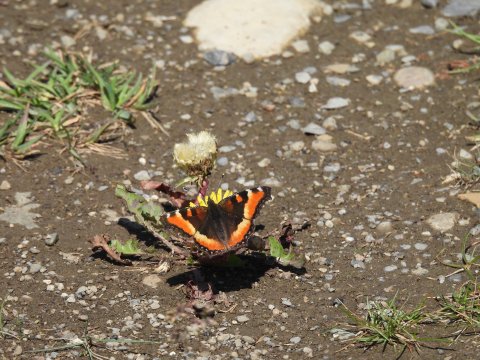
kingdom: Animalia
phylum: Arthropoda
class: Insecta
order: Lepidoptera
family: Nymphalidae
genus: Aglais
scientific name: Aglais milberti
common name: Milbert's Tortoiseshell
